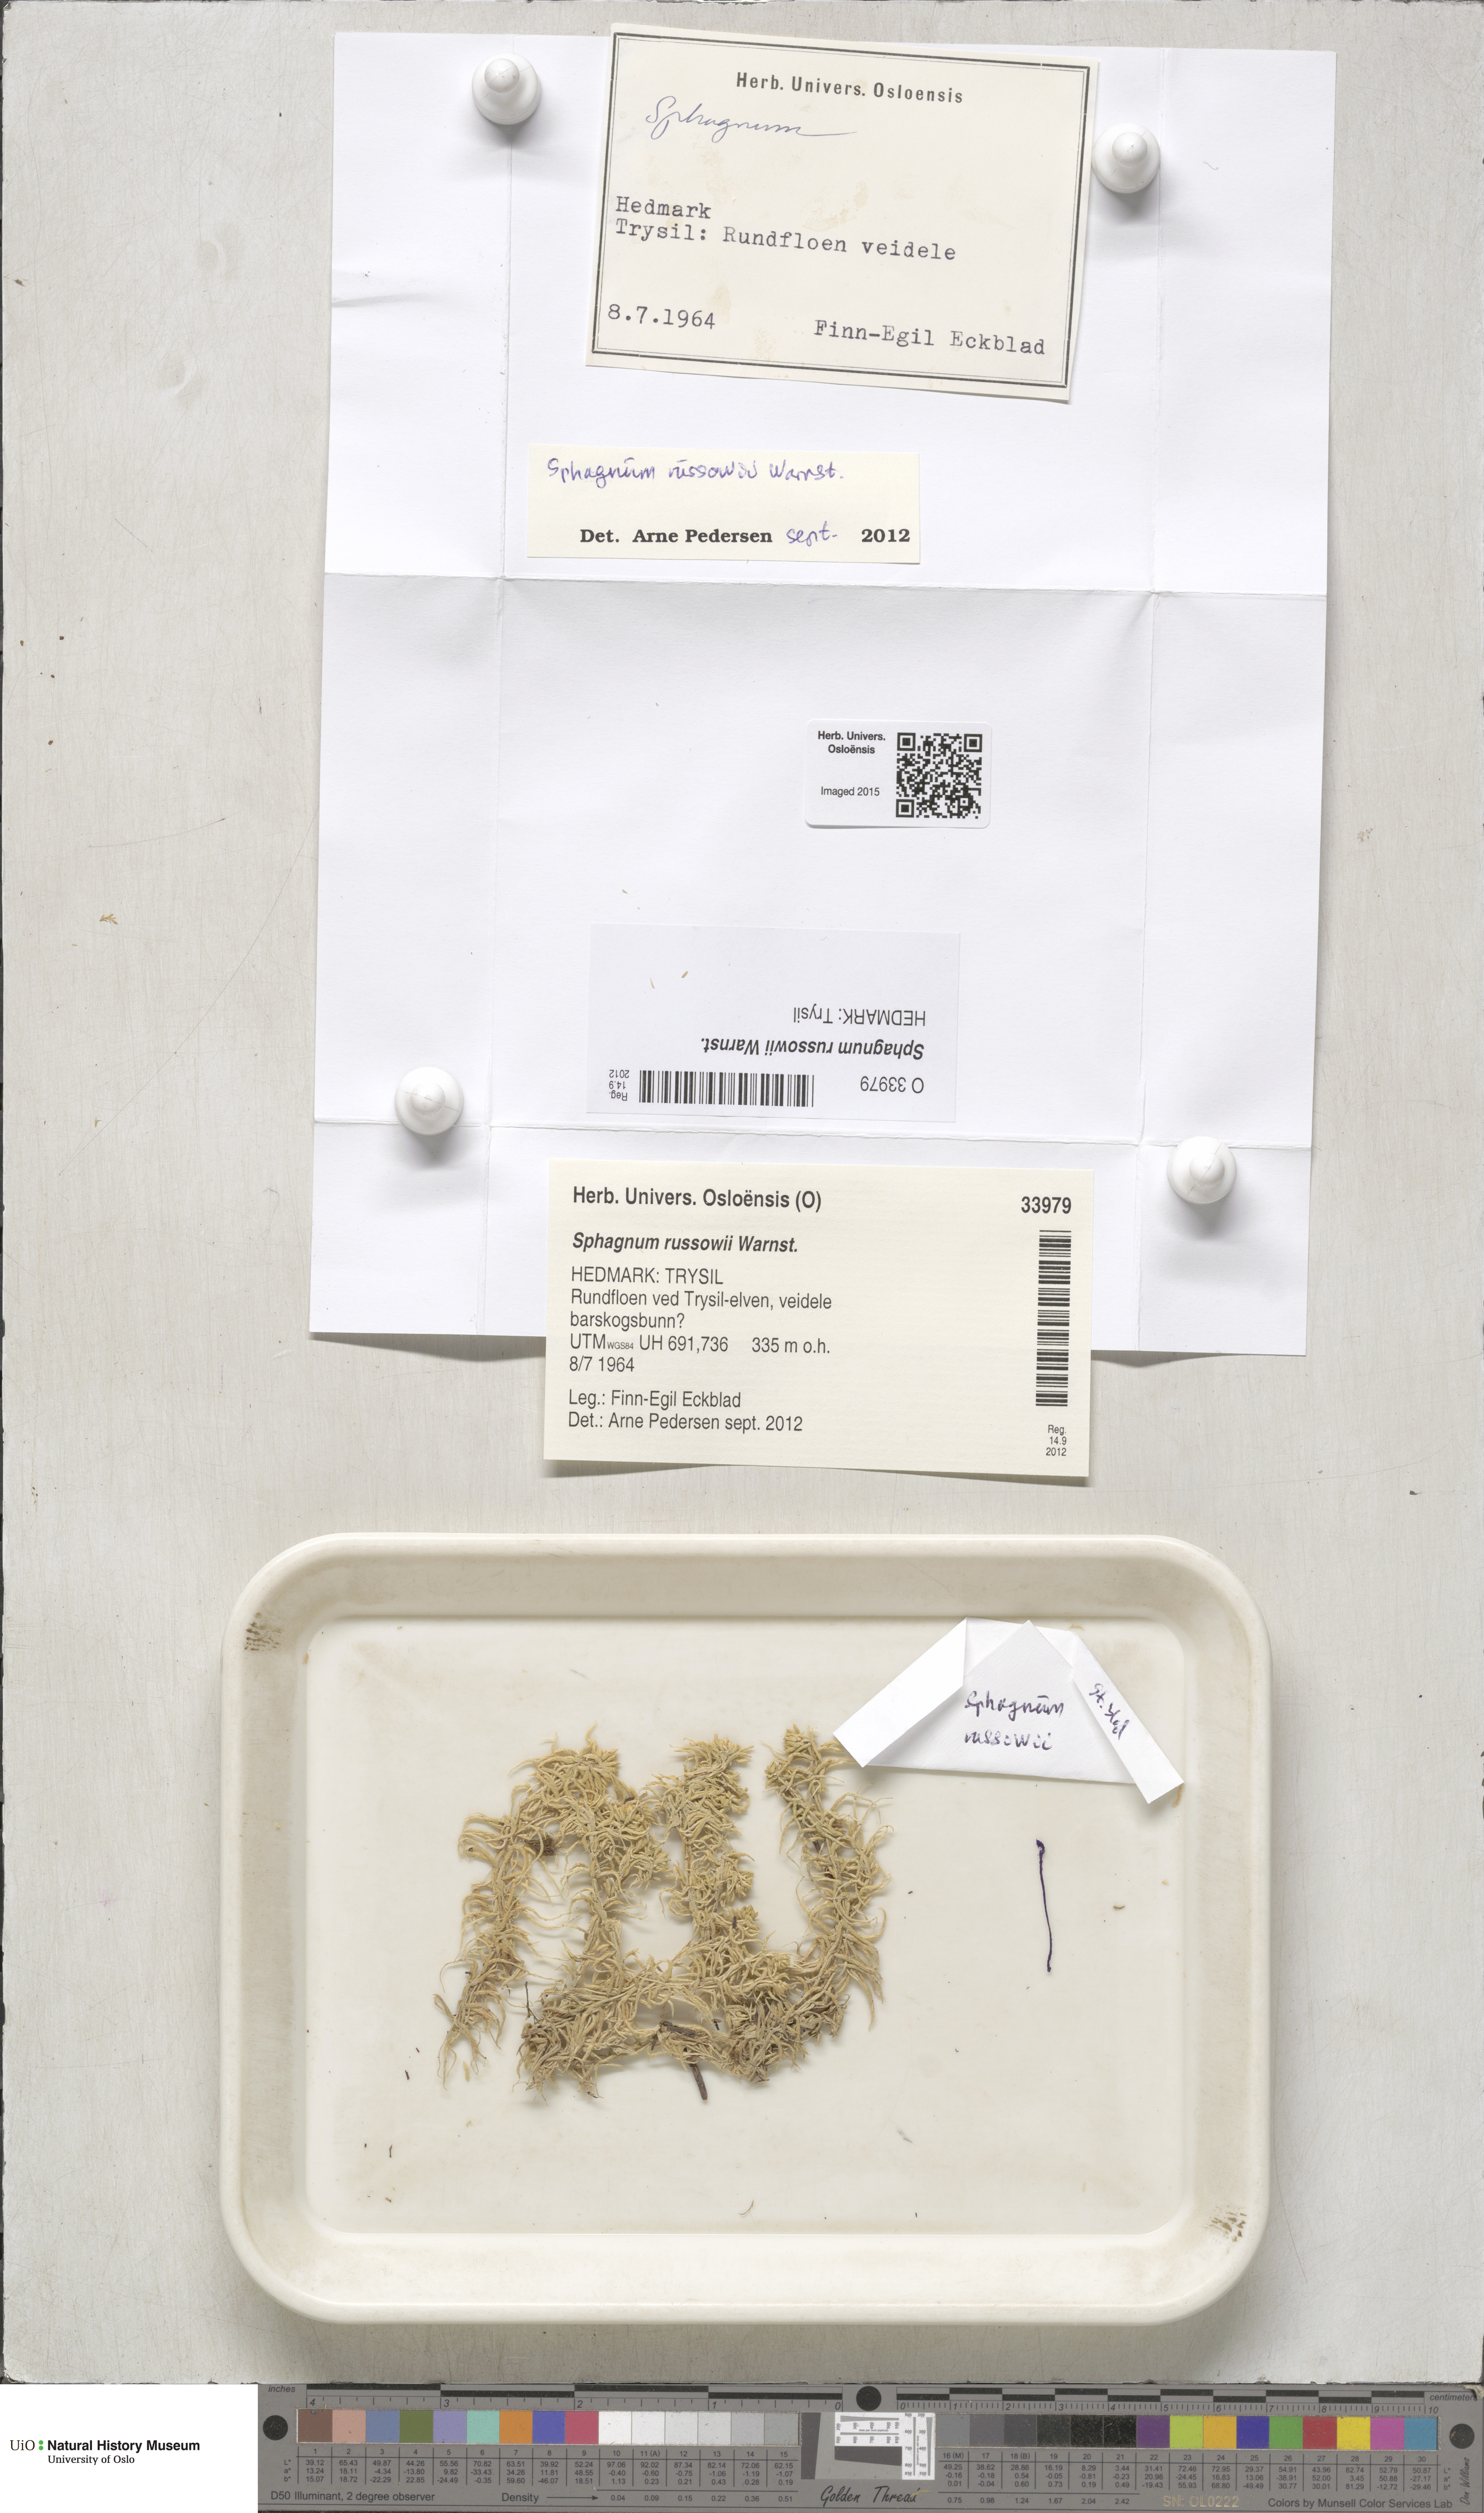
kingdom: Plantae
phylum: Bryophyta
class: Sphagnopsida
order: Sphagnales
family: Sphagnaceae
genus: Sphagnum
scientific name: Sphagnum russowii
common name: Russow's peat moss
